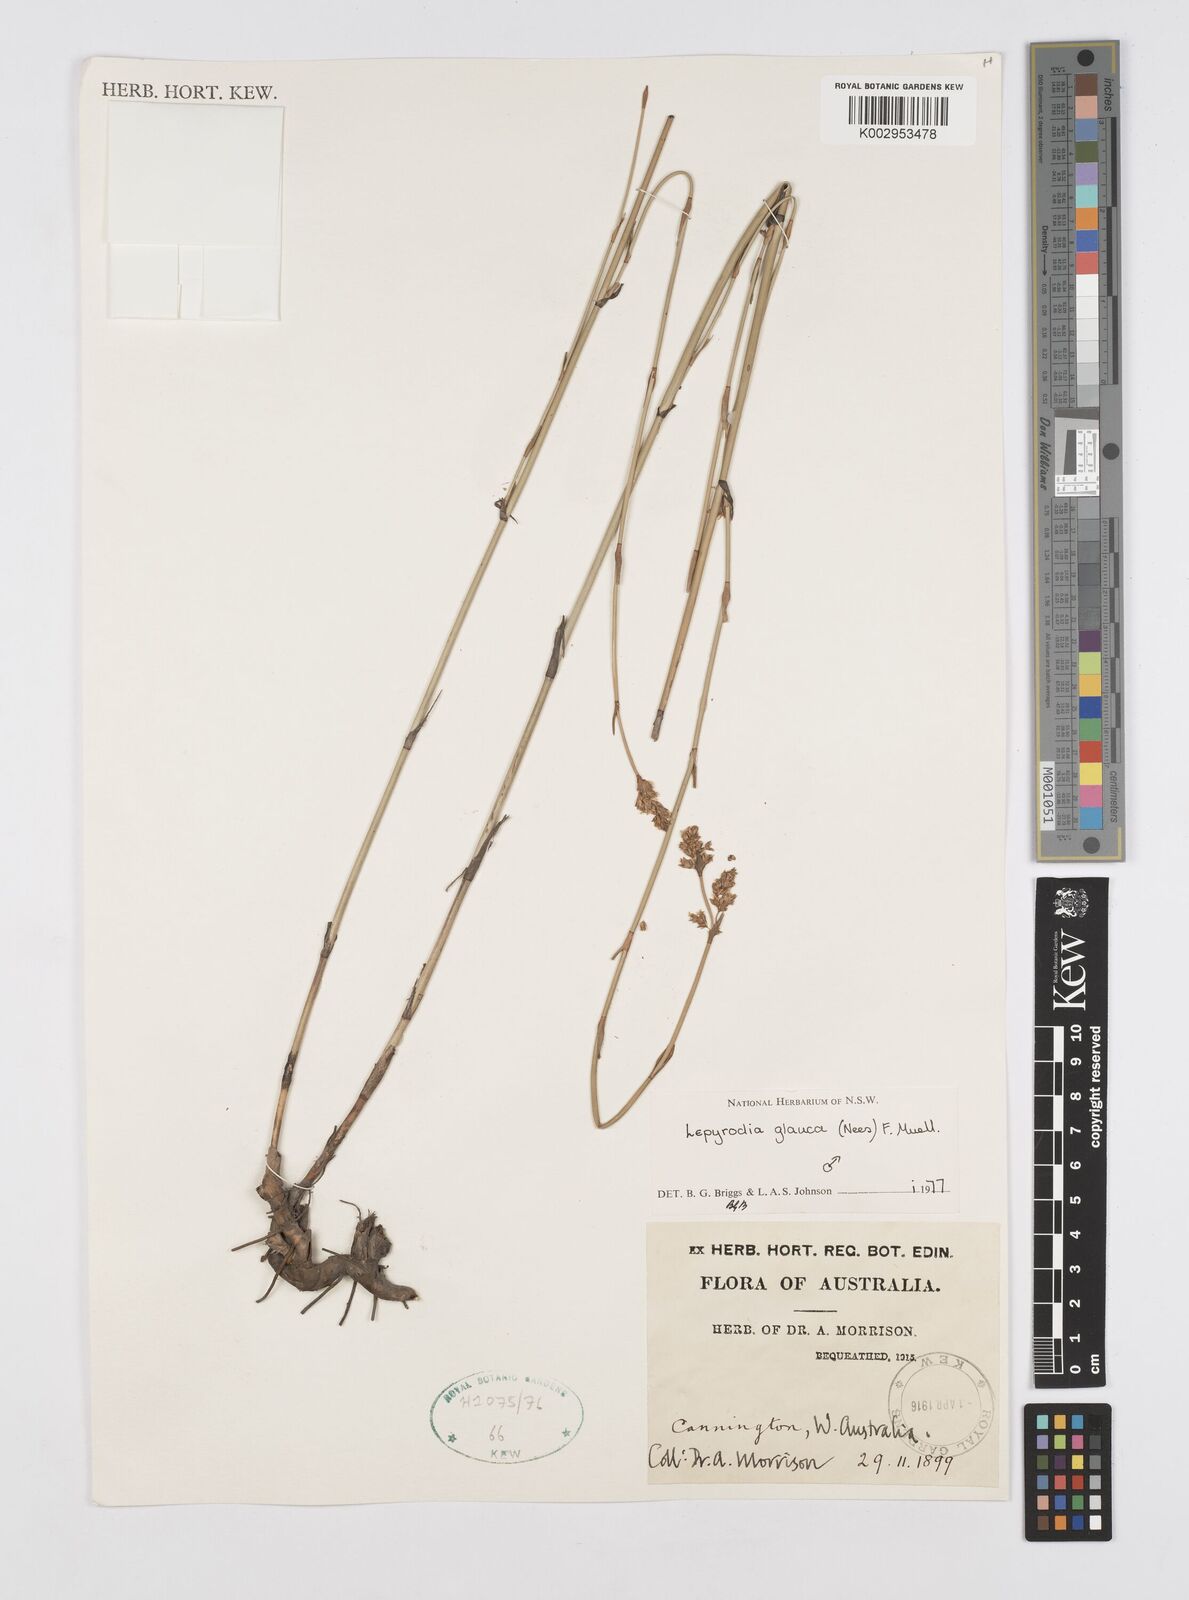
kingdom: Plantae
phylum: Tracheophyta
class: Liliopsida
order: Poales
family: Restionaceae
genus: Lepyrodia
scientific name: Lepyrodia glauca
